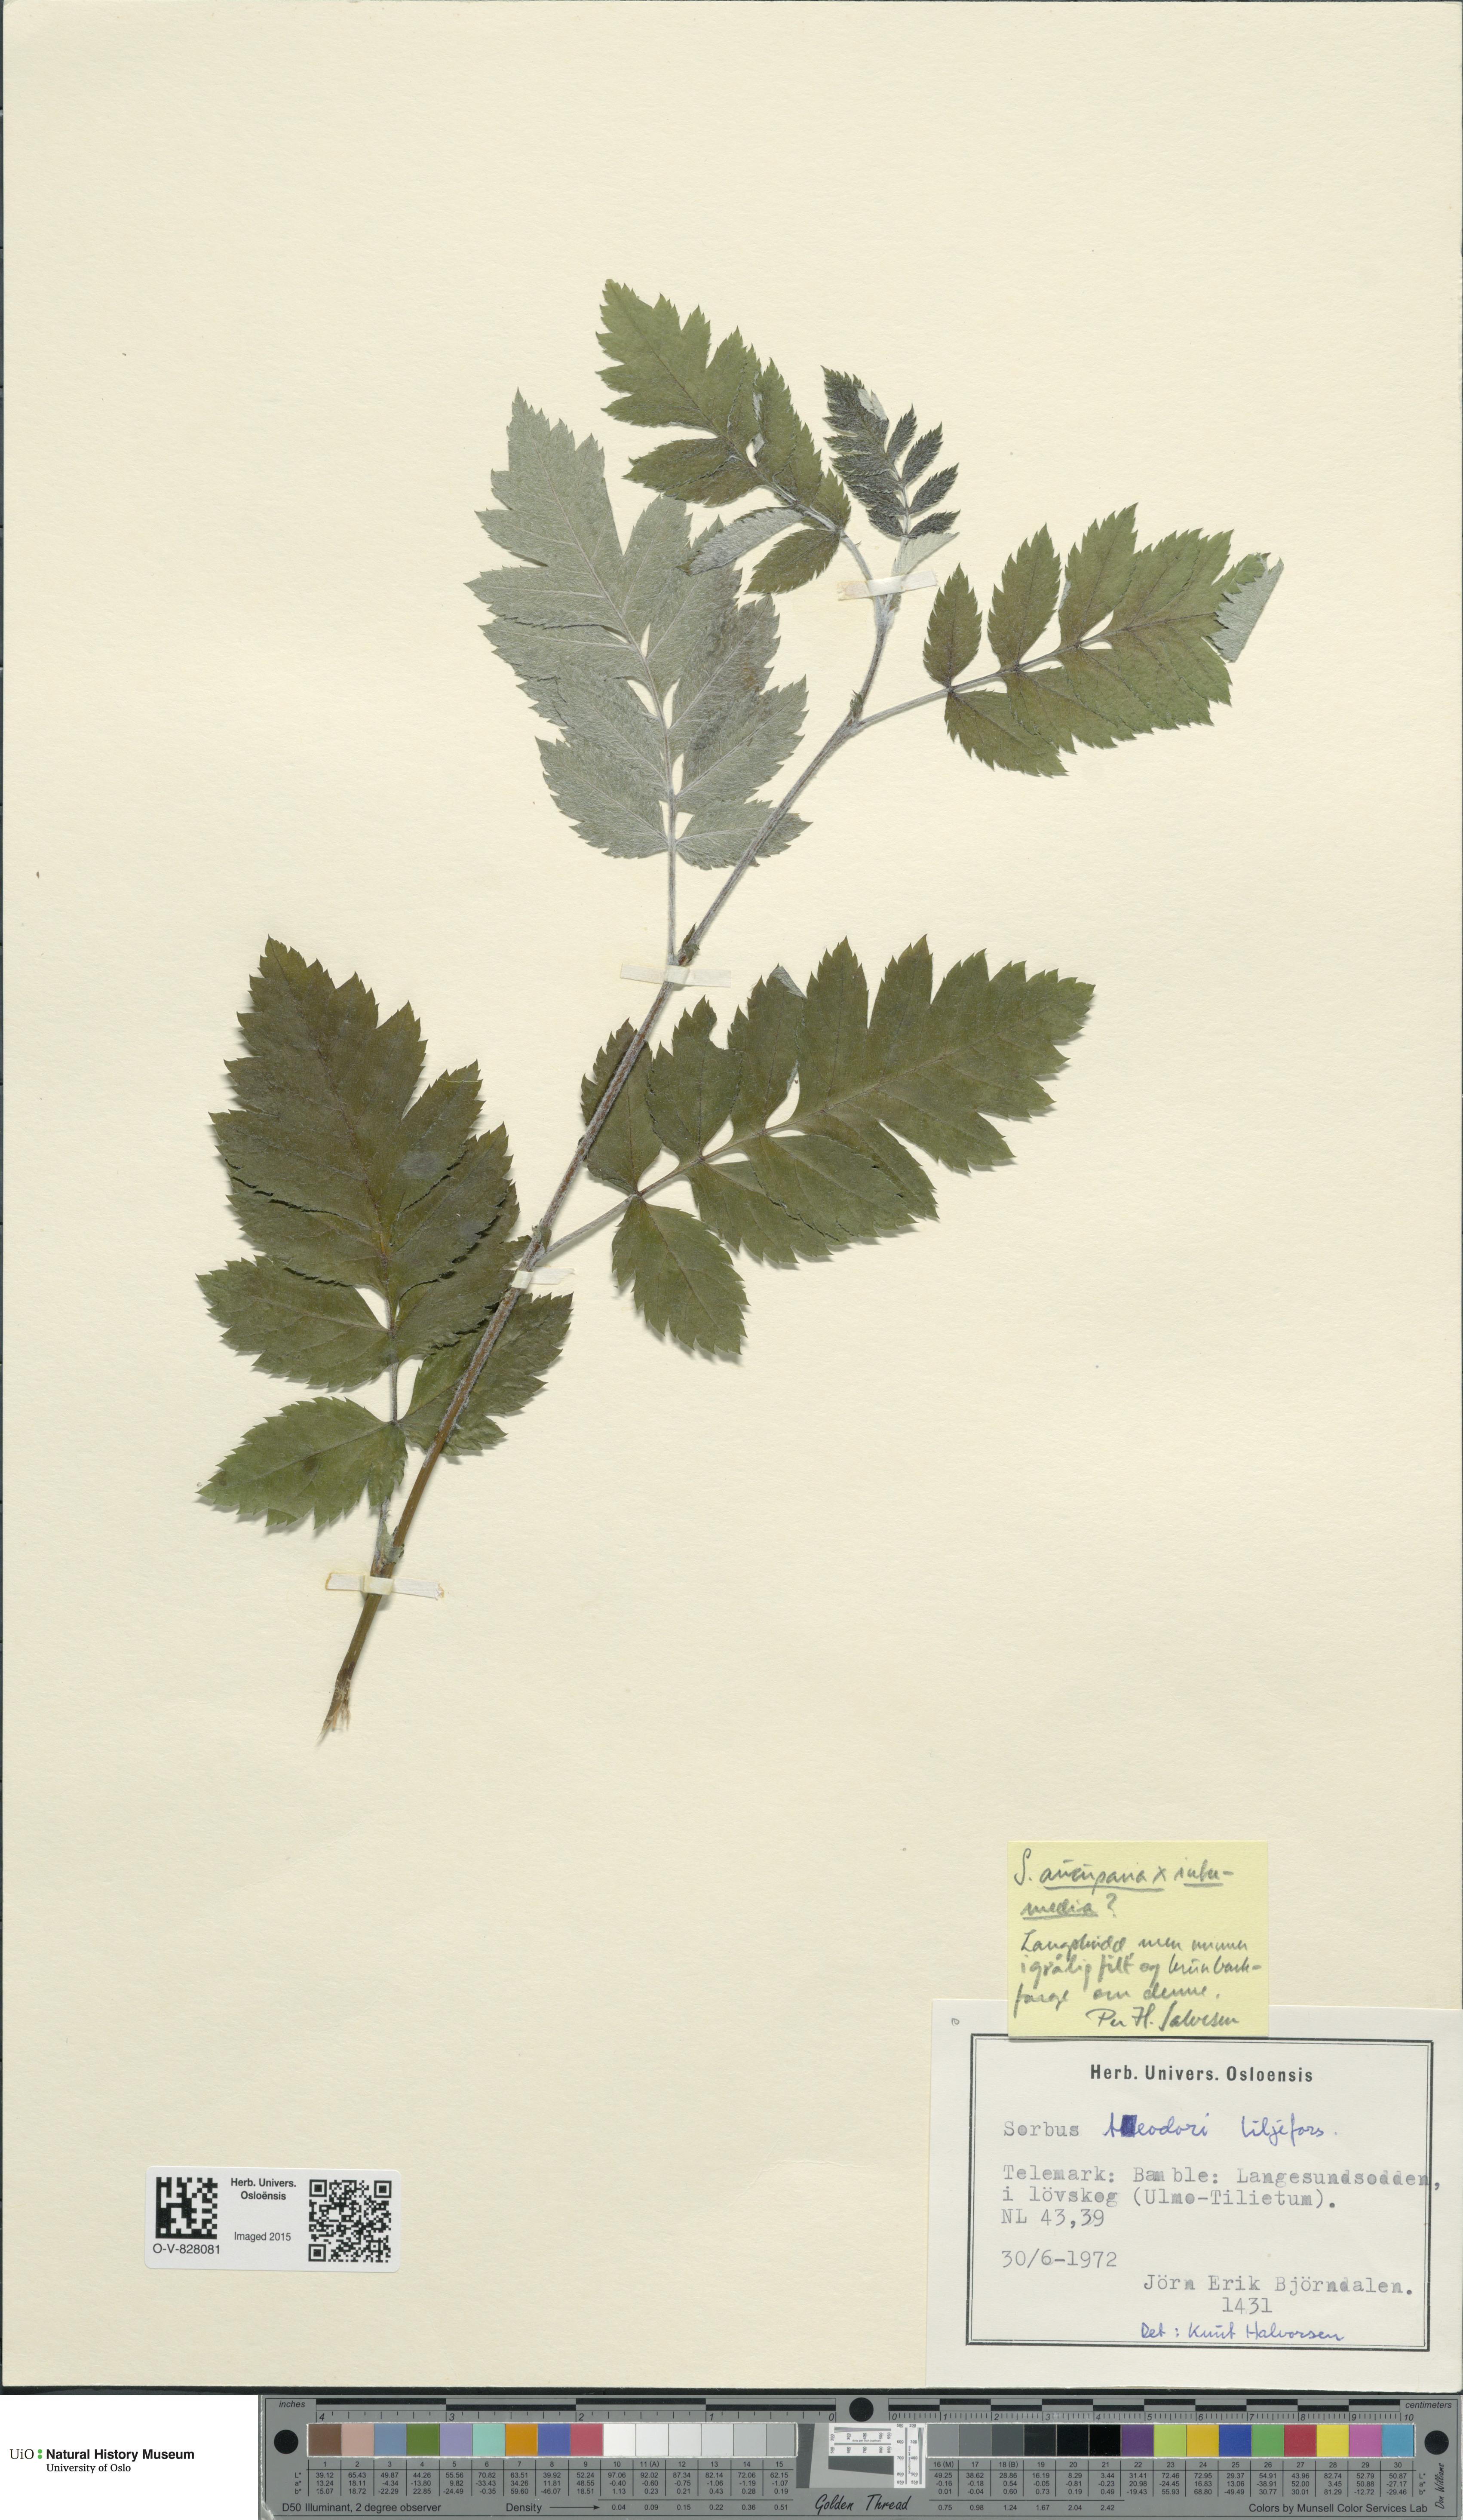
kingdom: Plantae
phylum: Tracheophyta
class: Magnoliopsida
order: Rosales
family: Rosaceae
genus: Scandosorbus
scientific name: Scandosorbus
